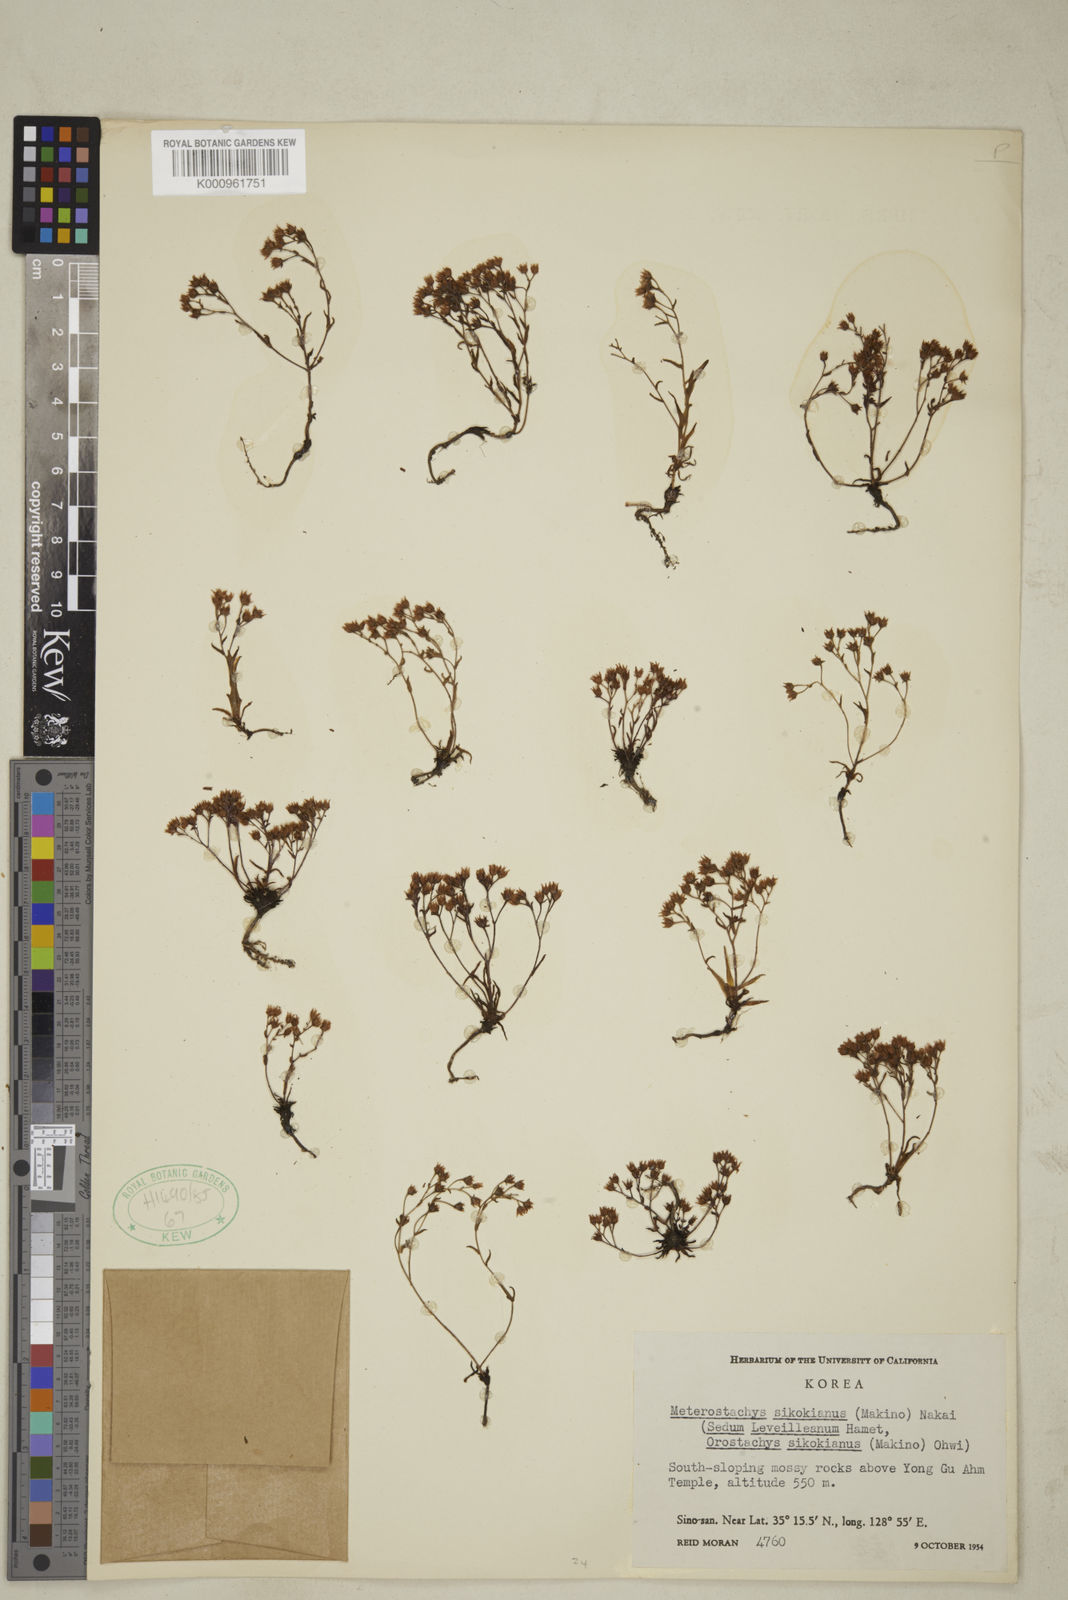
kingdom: Plantae
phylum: Tracheophyta
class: Magnoliopsida
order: Saxifragales
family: Crassulaceae
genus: Meterostachys
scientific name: Meterostachys sikokianus
